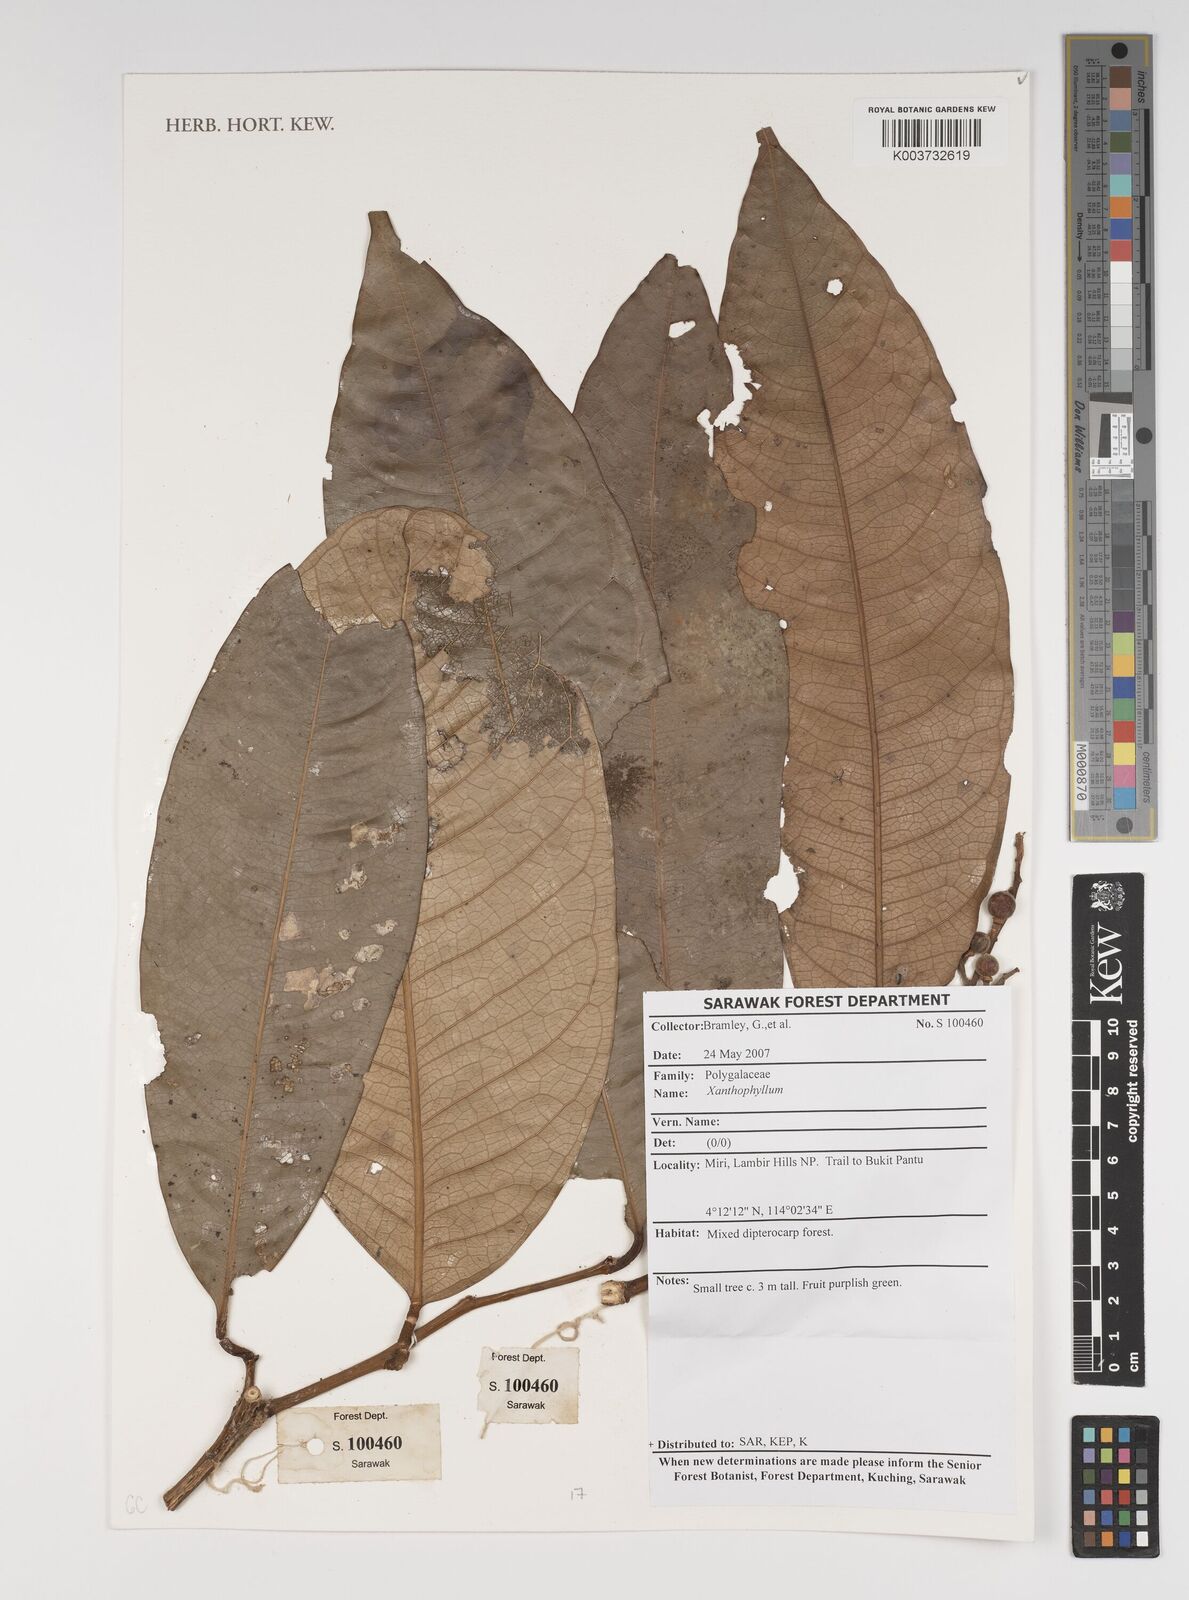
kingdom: Plantae
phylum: Tracheophyta
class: Magnoliopsida
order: Fabales
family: Polygalaceae
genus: Xanthophyllum
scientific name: Xanthophyllum
